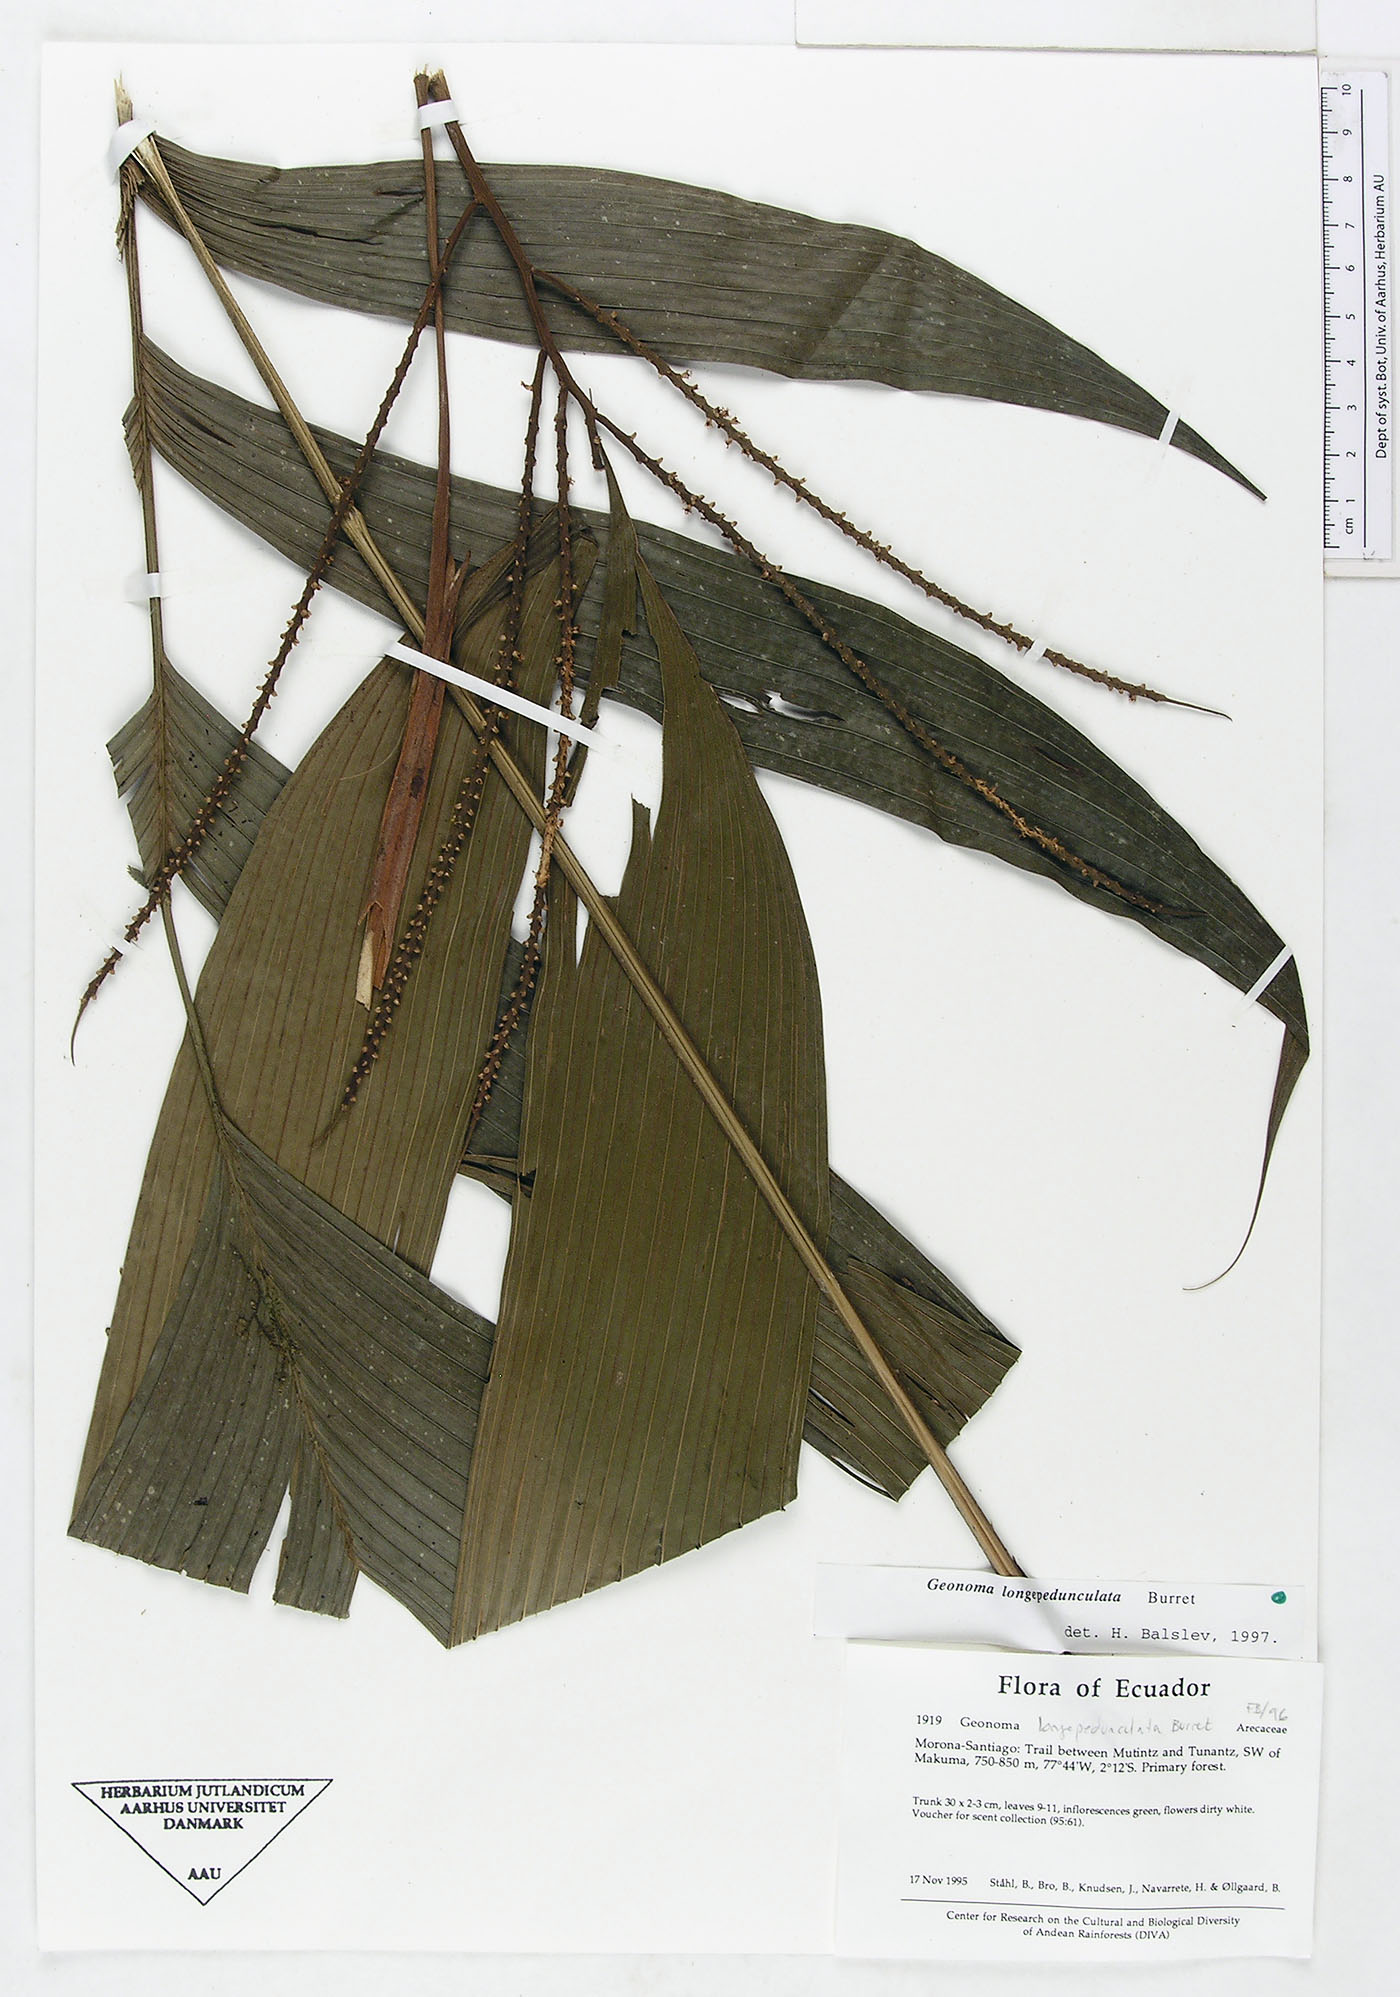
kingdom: Plantae
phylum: Tracheophyta
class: Liliopsida
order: Arecales
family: Arecaceae
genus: Geonoma
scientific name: Geonoma longepedunculata
